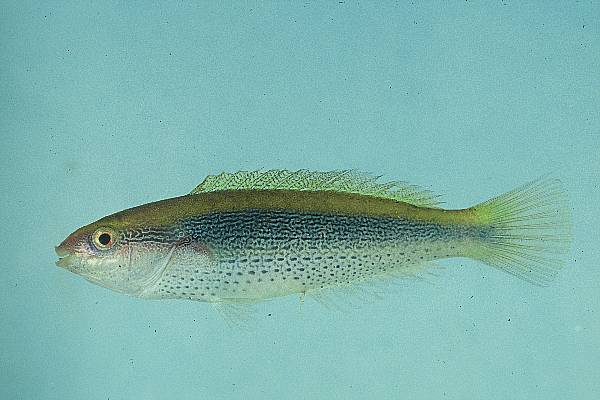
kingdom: Animalia
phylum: Chordata
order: Perciformes
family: Labridae
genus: Stethojulis
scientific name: Stethojulis interrupta
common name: Cutribbon wrasse
